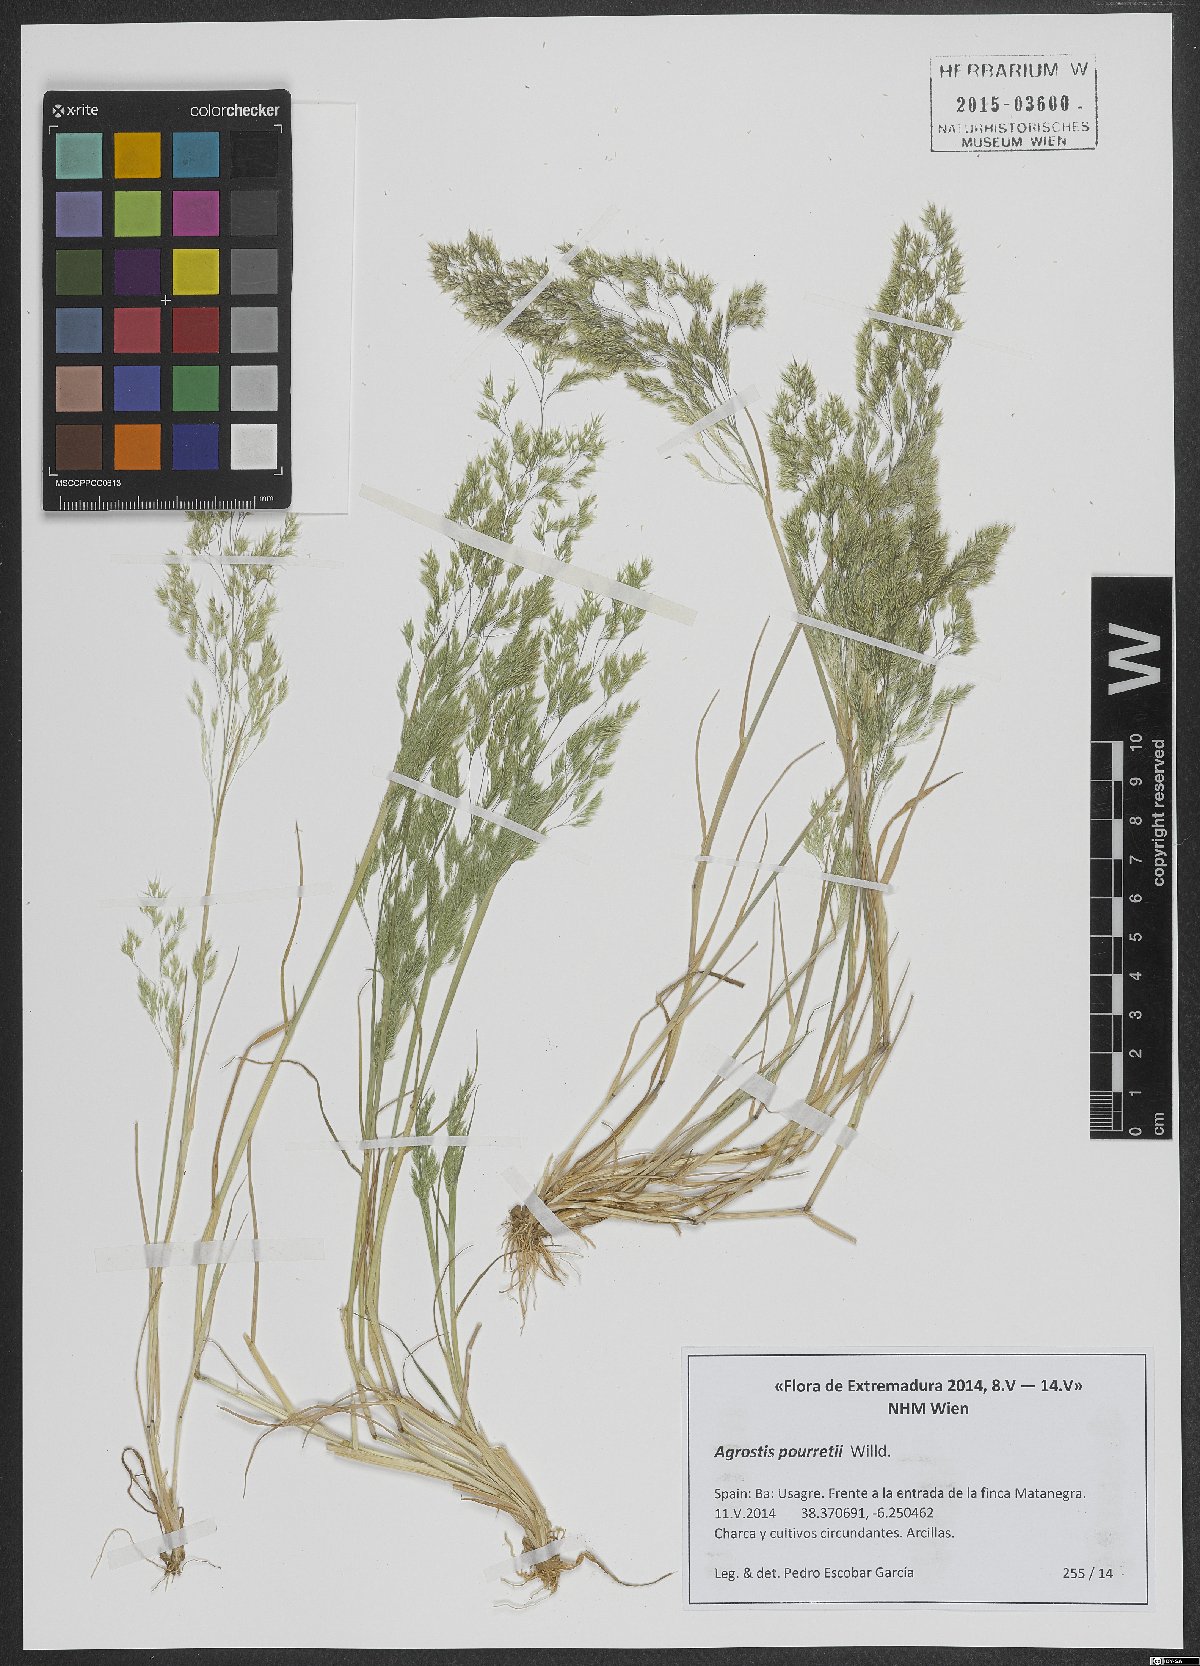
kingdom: Plantae
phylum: Tracheophyta
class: Liliopsida
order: Poales
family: Poaceae
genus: Agrostis
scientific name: Agrostis pourretii
